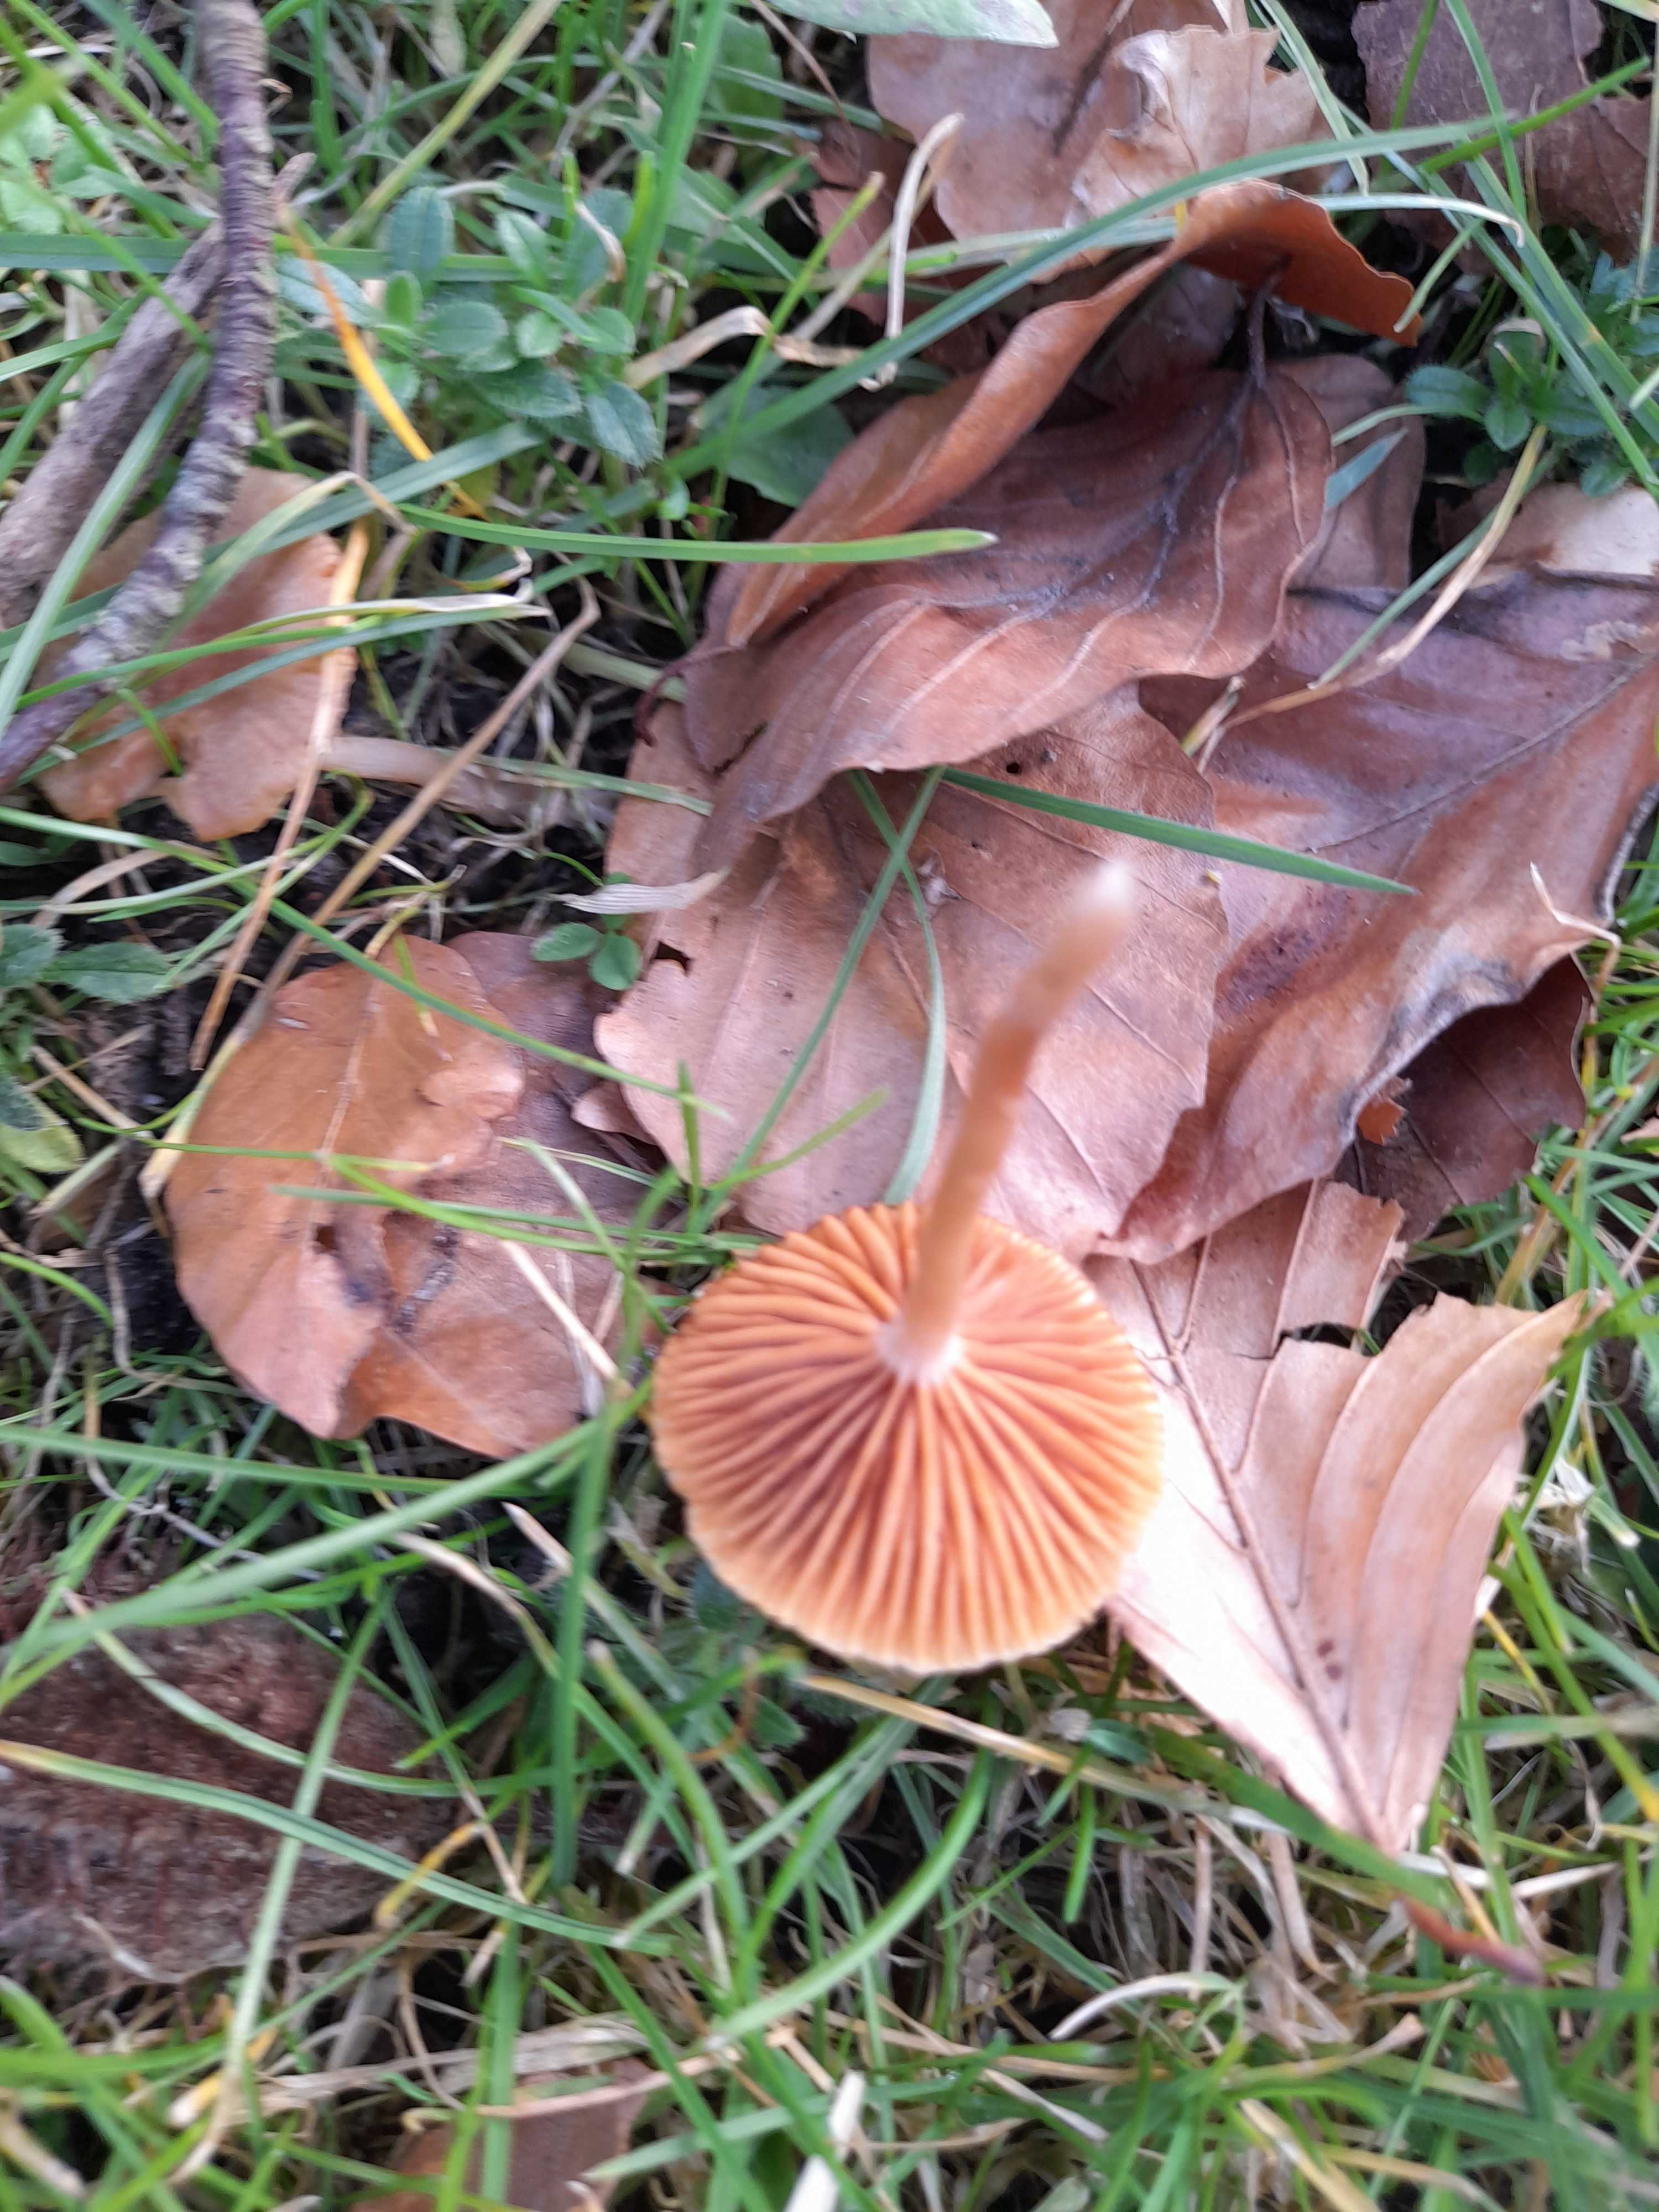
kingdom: Fungi
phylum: Basidiomycota
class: Agaricomycetes
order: Agaricales
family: Tubariaceae
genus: Tubaria
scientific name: Tubaria furfuracea
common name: kliddet fnughat
